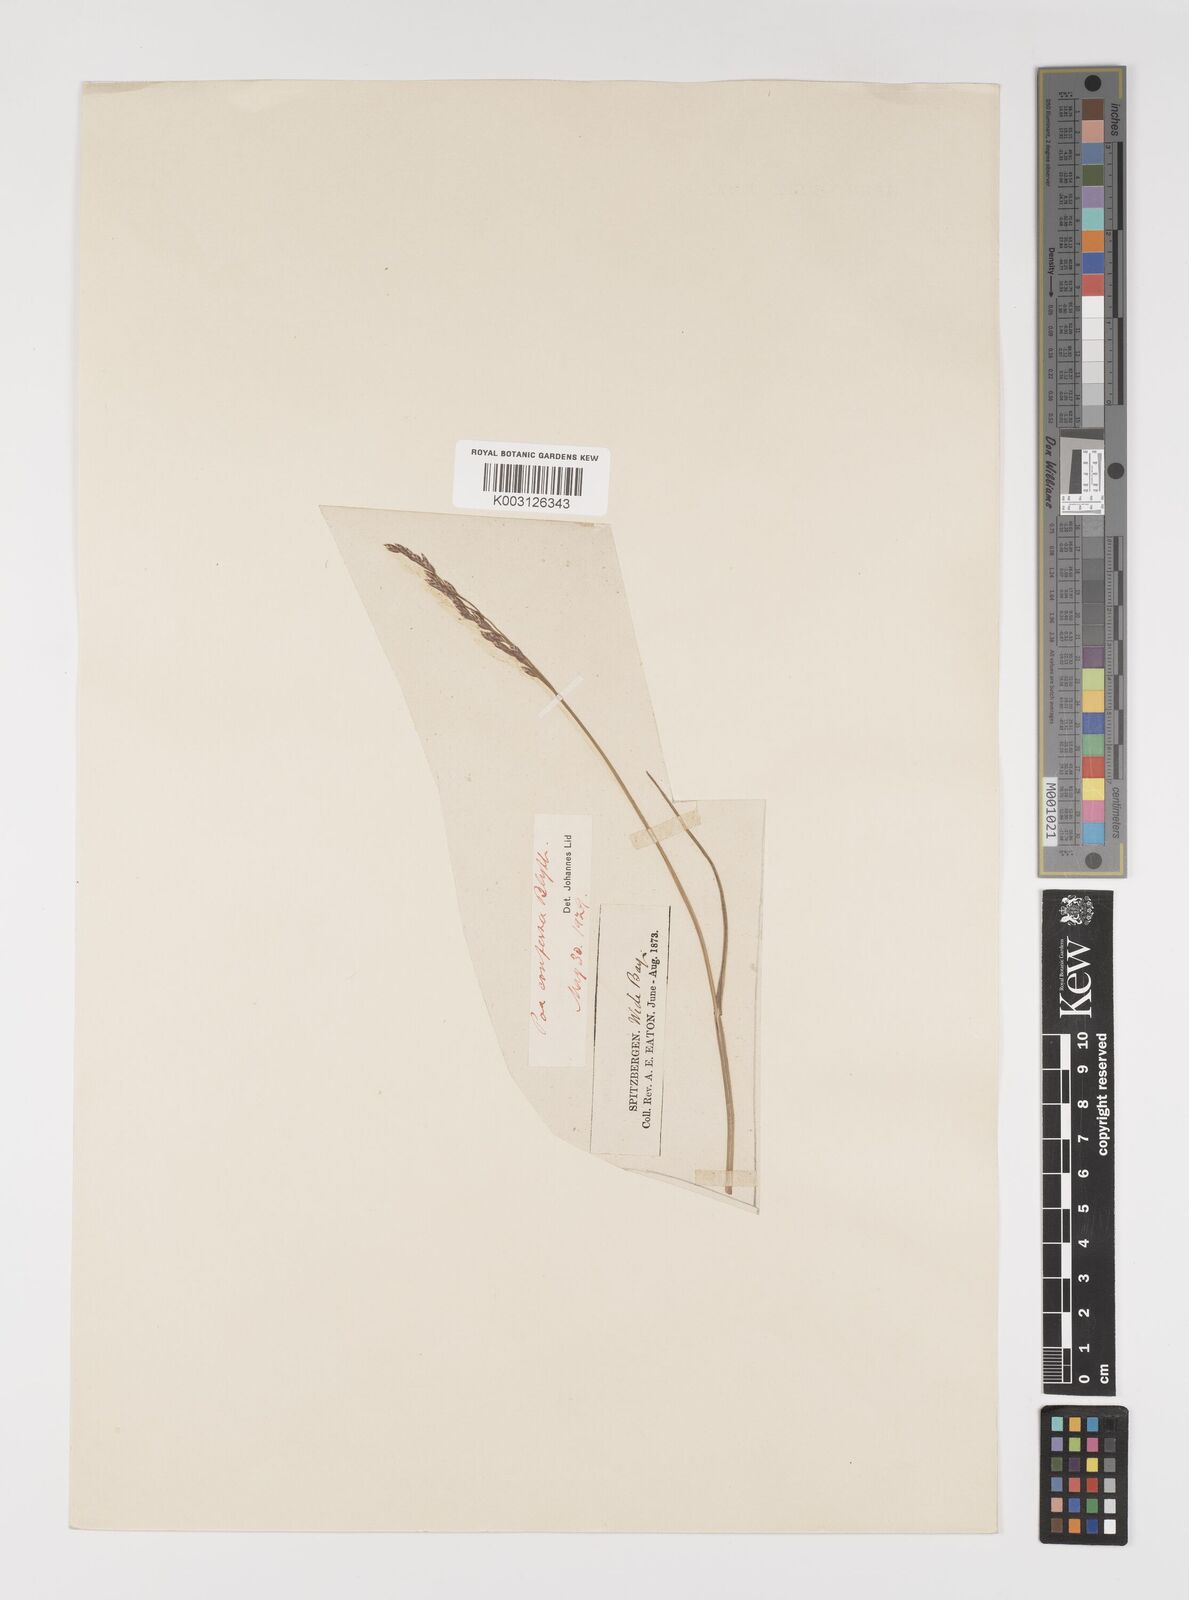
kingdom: Plantae
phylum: Tracheophyta
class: Liliopsida
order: Poales
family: Poaceae
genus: Poa
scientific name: Poa glauca
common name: Glaucous bluegrass
